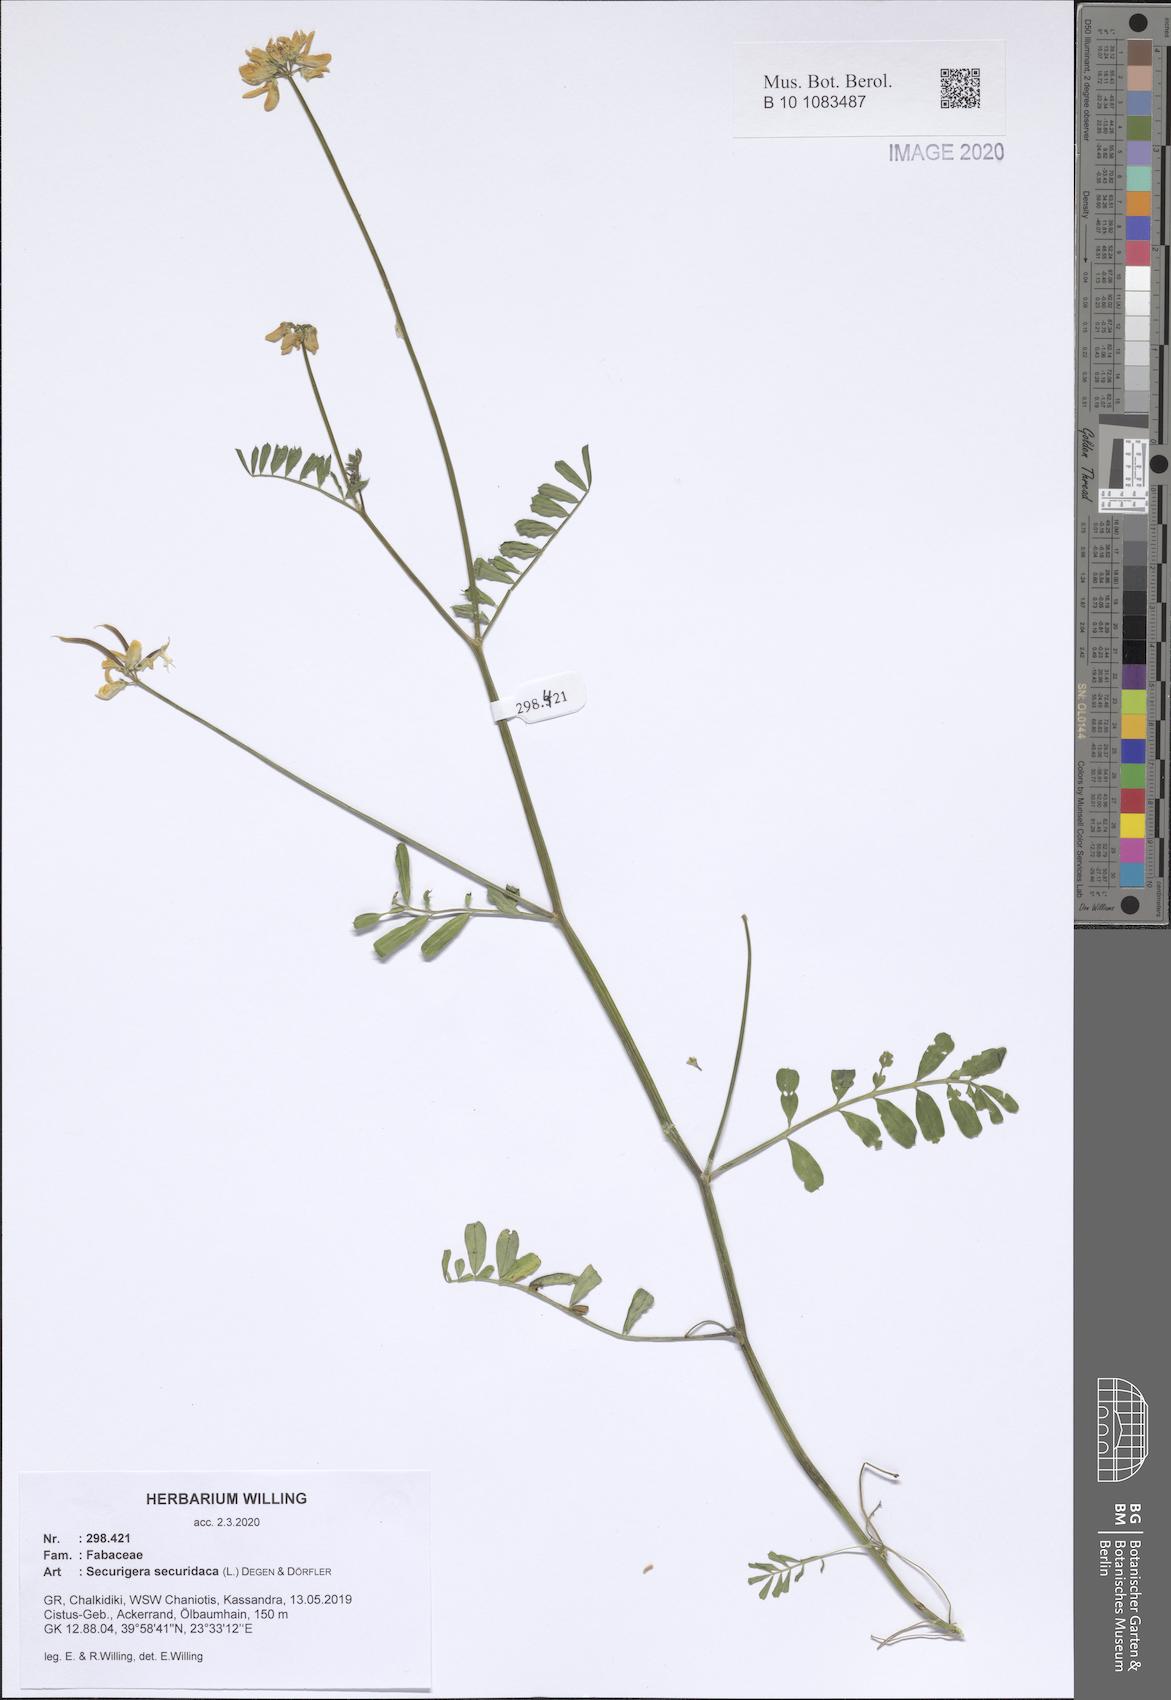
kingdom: Plantae
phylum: Tracheophyta
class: Magnoliopsida
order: Fabales
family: Fabaceae
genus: Coronilla
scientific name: Coronilla securidaca
